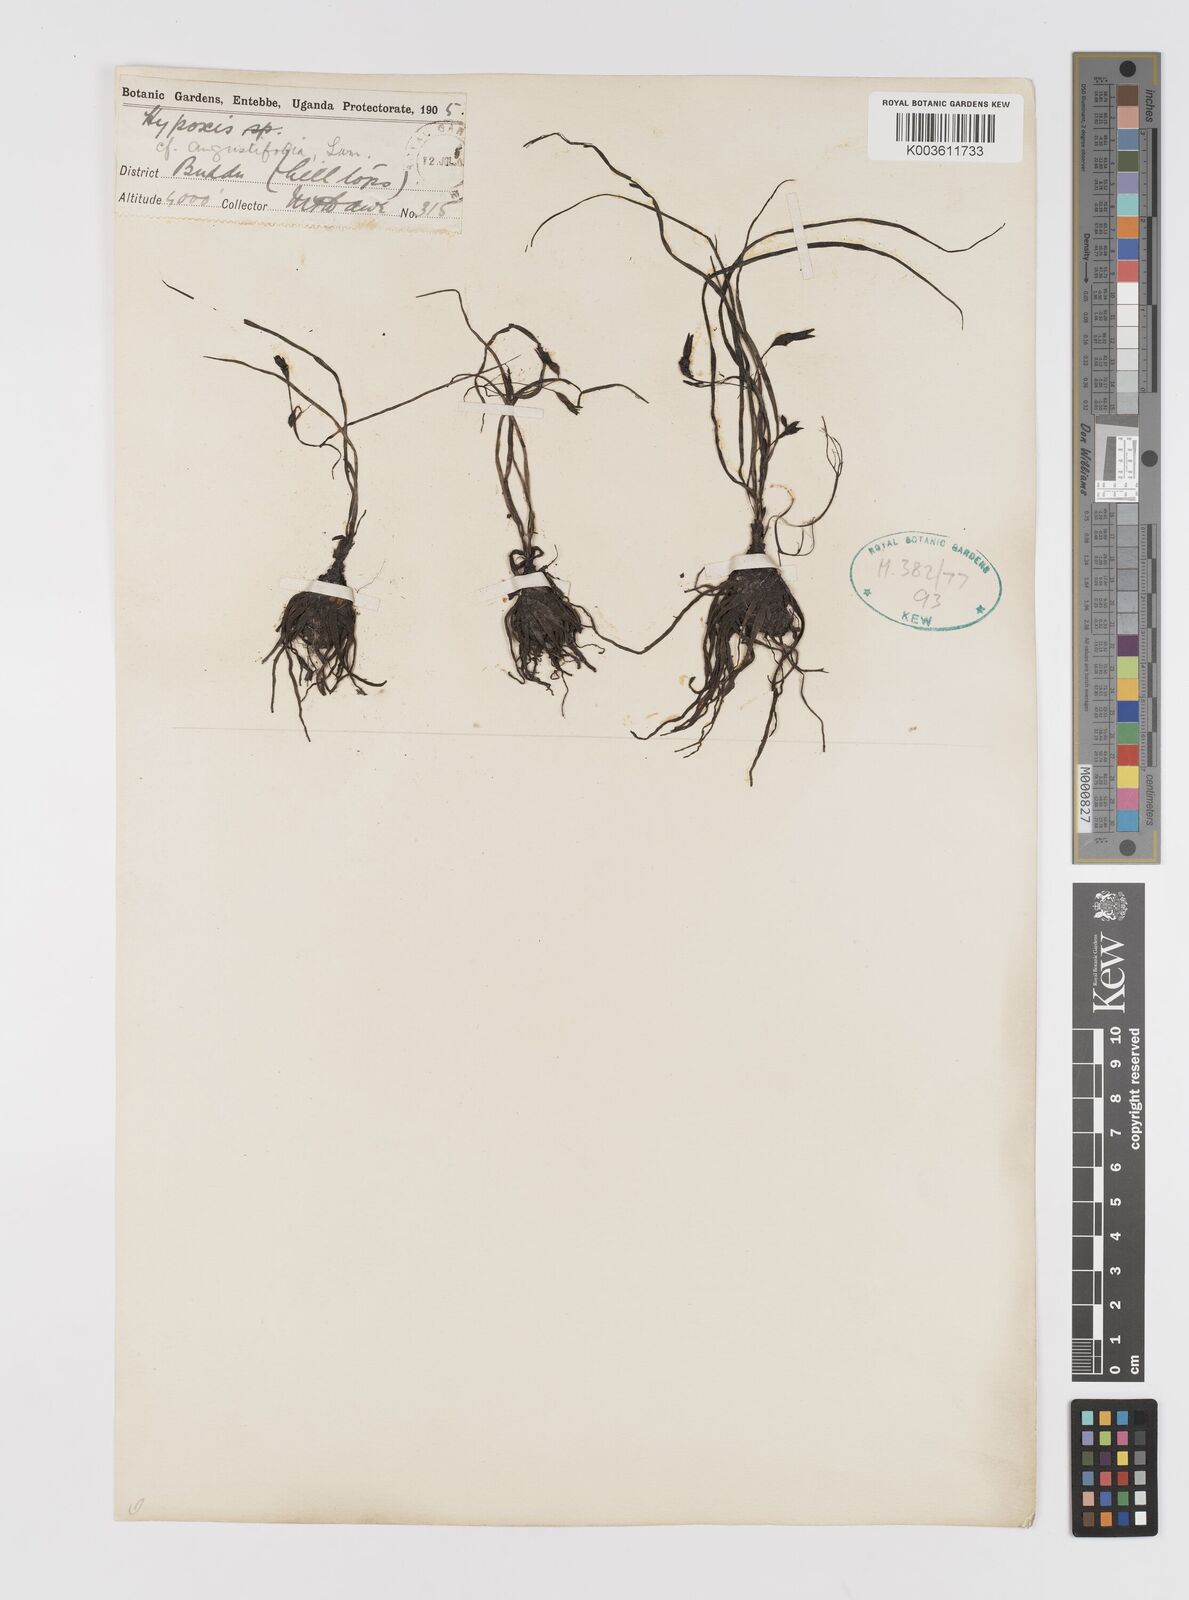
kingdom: Plantae
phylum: Tracheophyta
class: Liliopsida
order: Asparagales
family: Hypoxidaceae
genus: Hypoxis
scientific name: Hypoxis angustifolia
